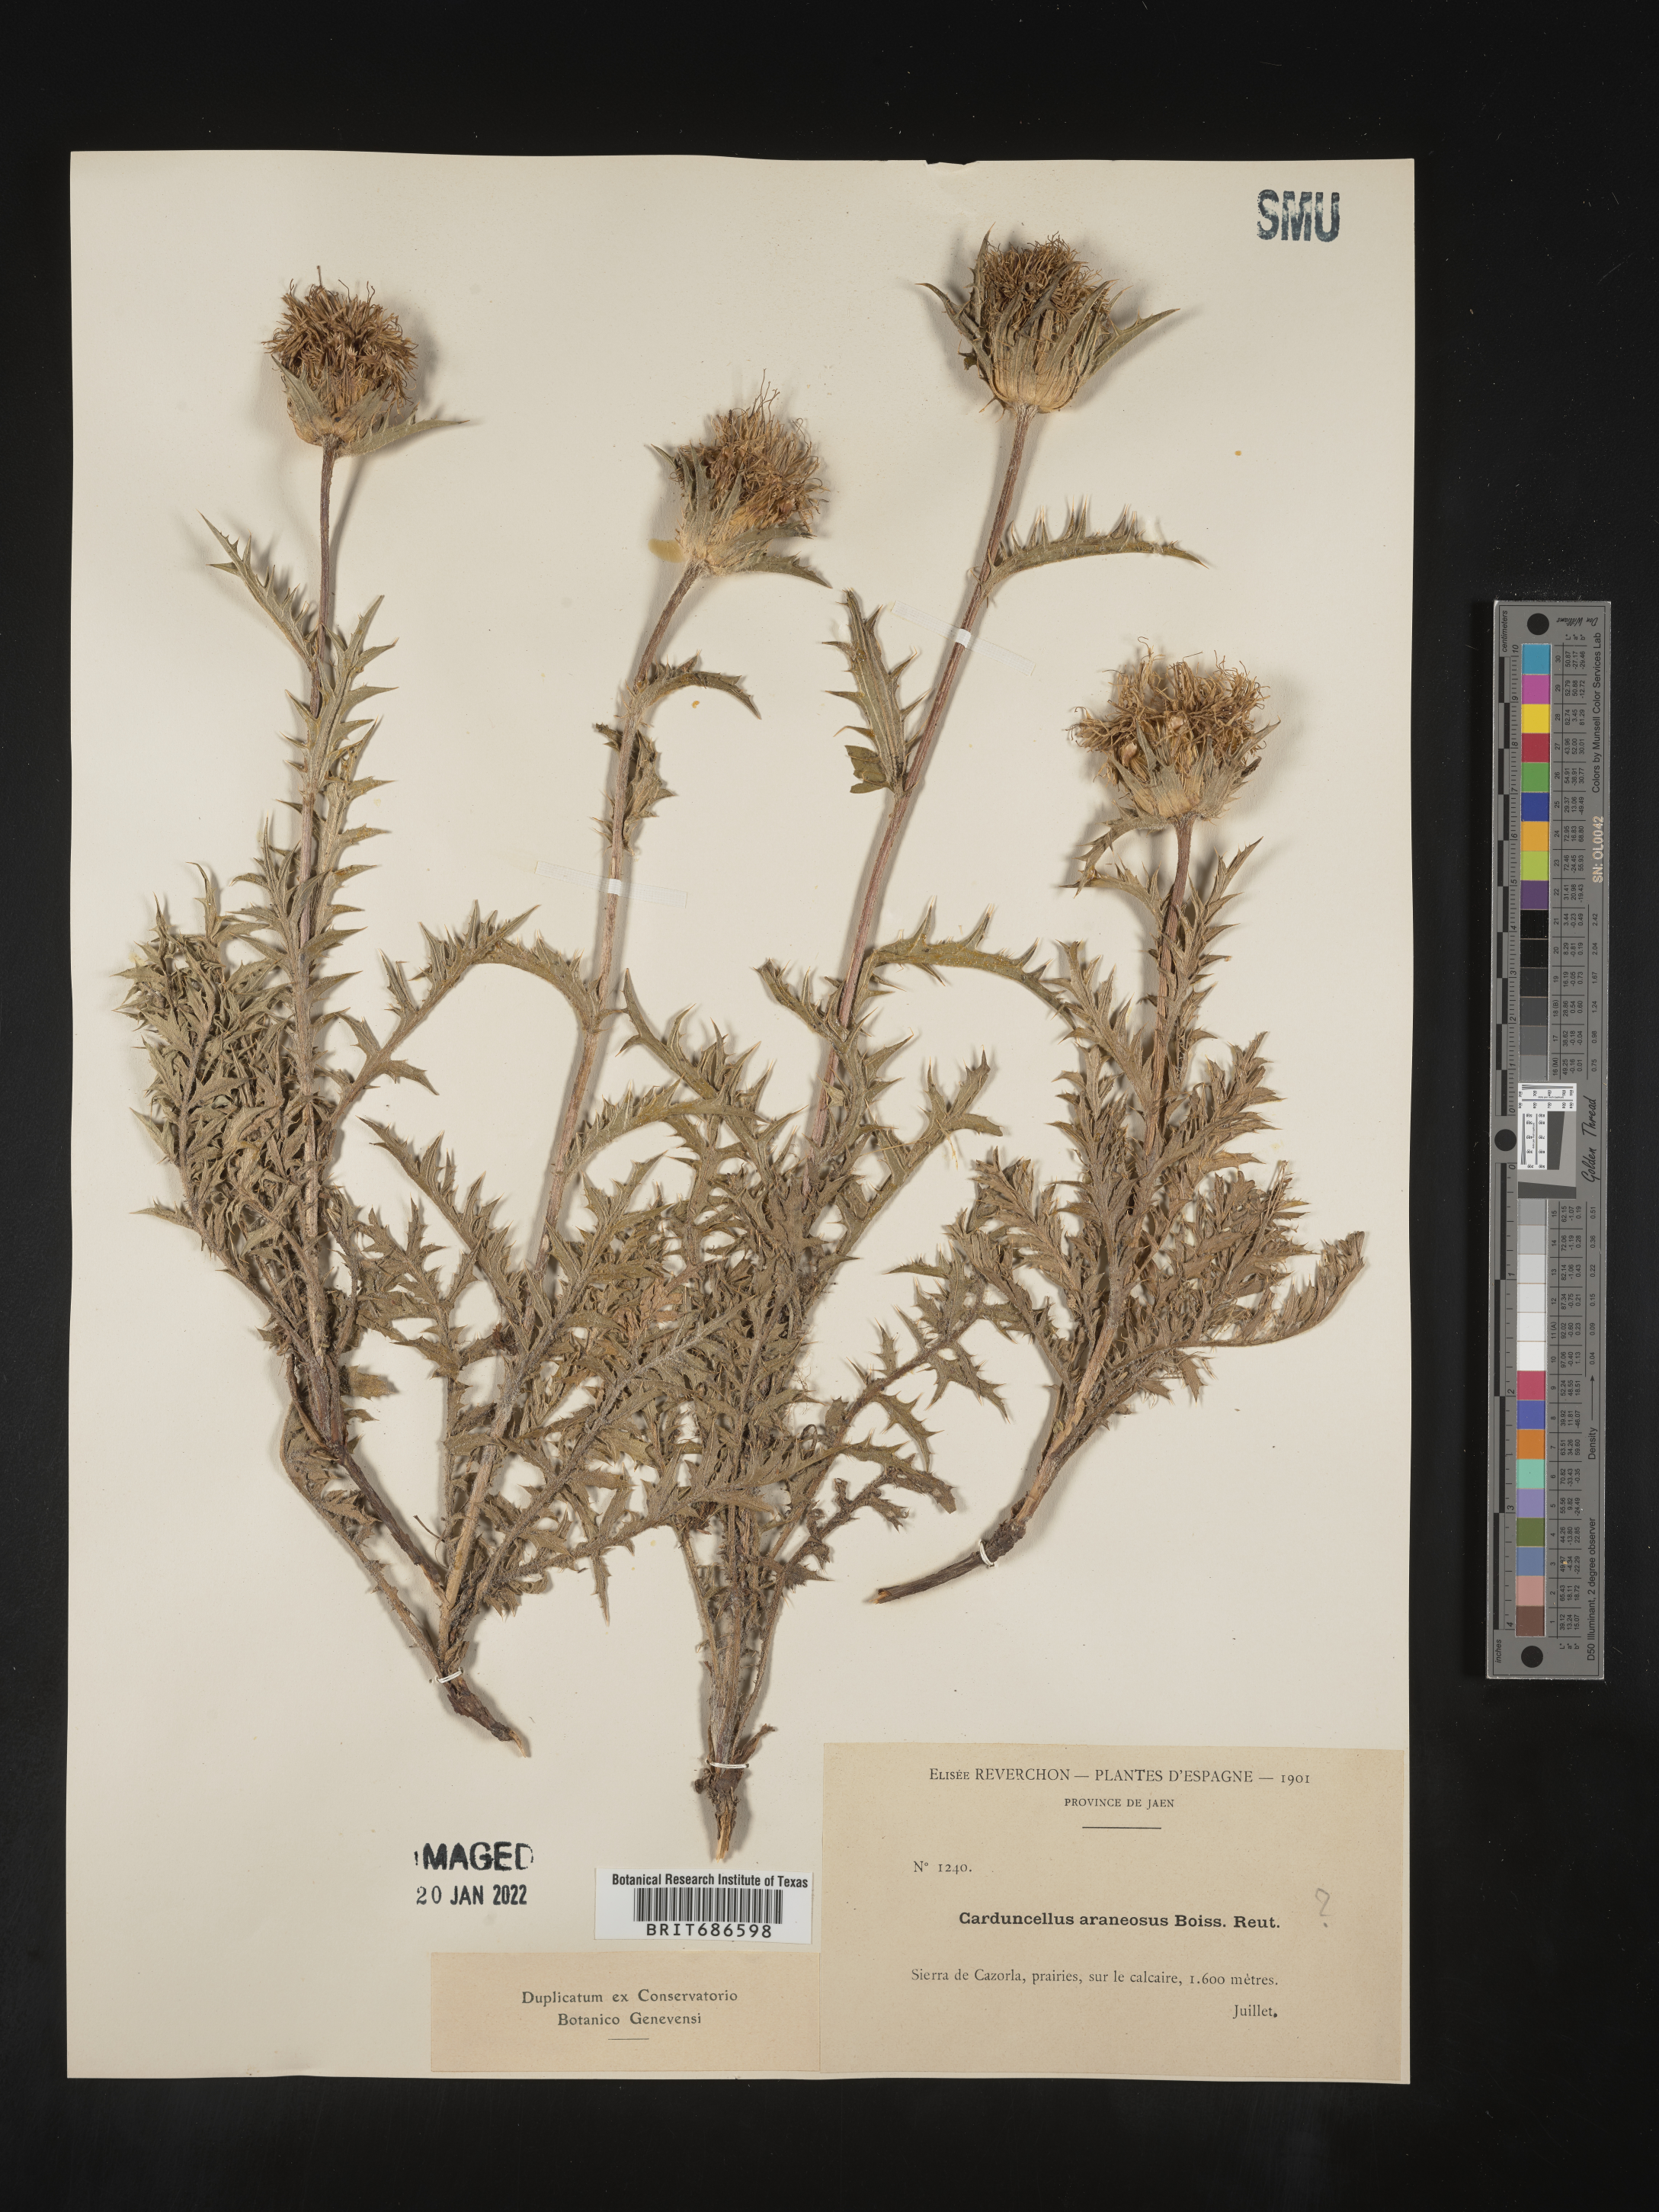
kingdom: Plantae
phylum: Tracheophyta
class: Magnoliopsida
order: Asterales
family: Asteraceae
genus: Carduncellus
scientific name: Carduncellus
